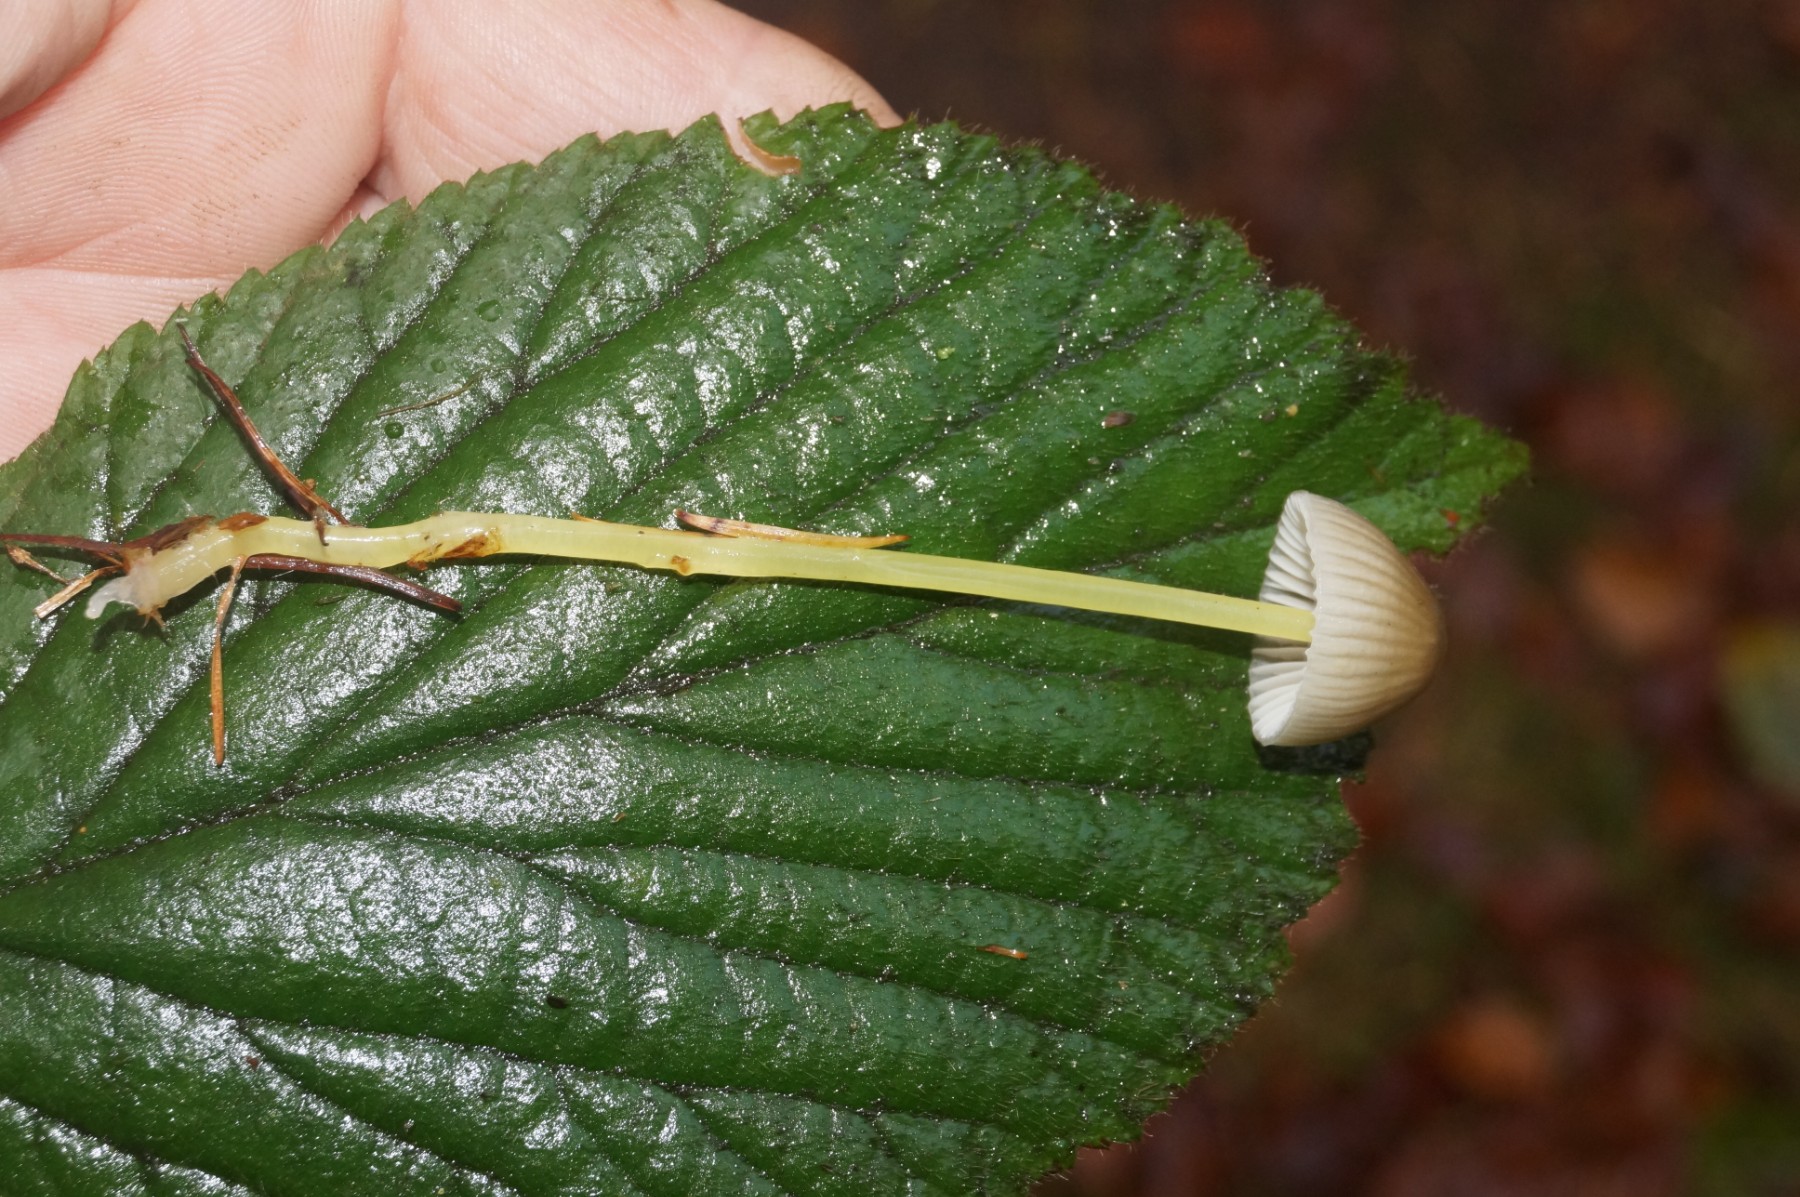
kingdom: Fungi
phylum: Basidiomycota
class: Agaricomycetes
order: Agaricales
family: Mycenaceae
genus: Mycena
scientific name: Mycena epipterygia
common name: gulstokket huesvamp
